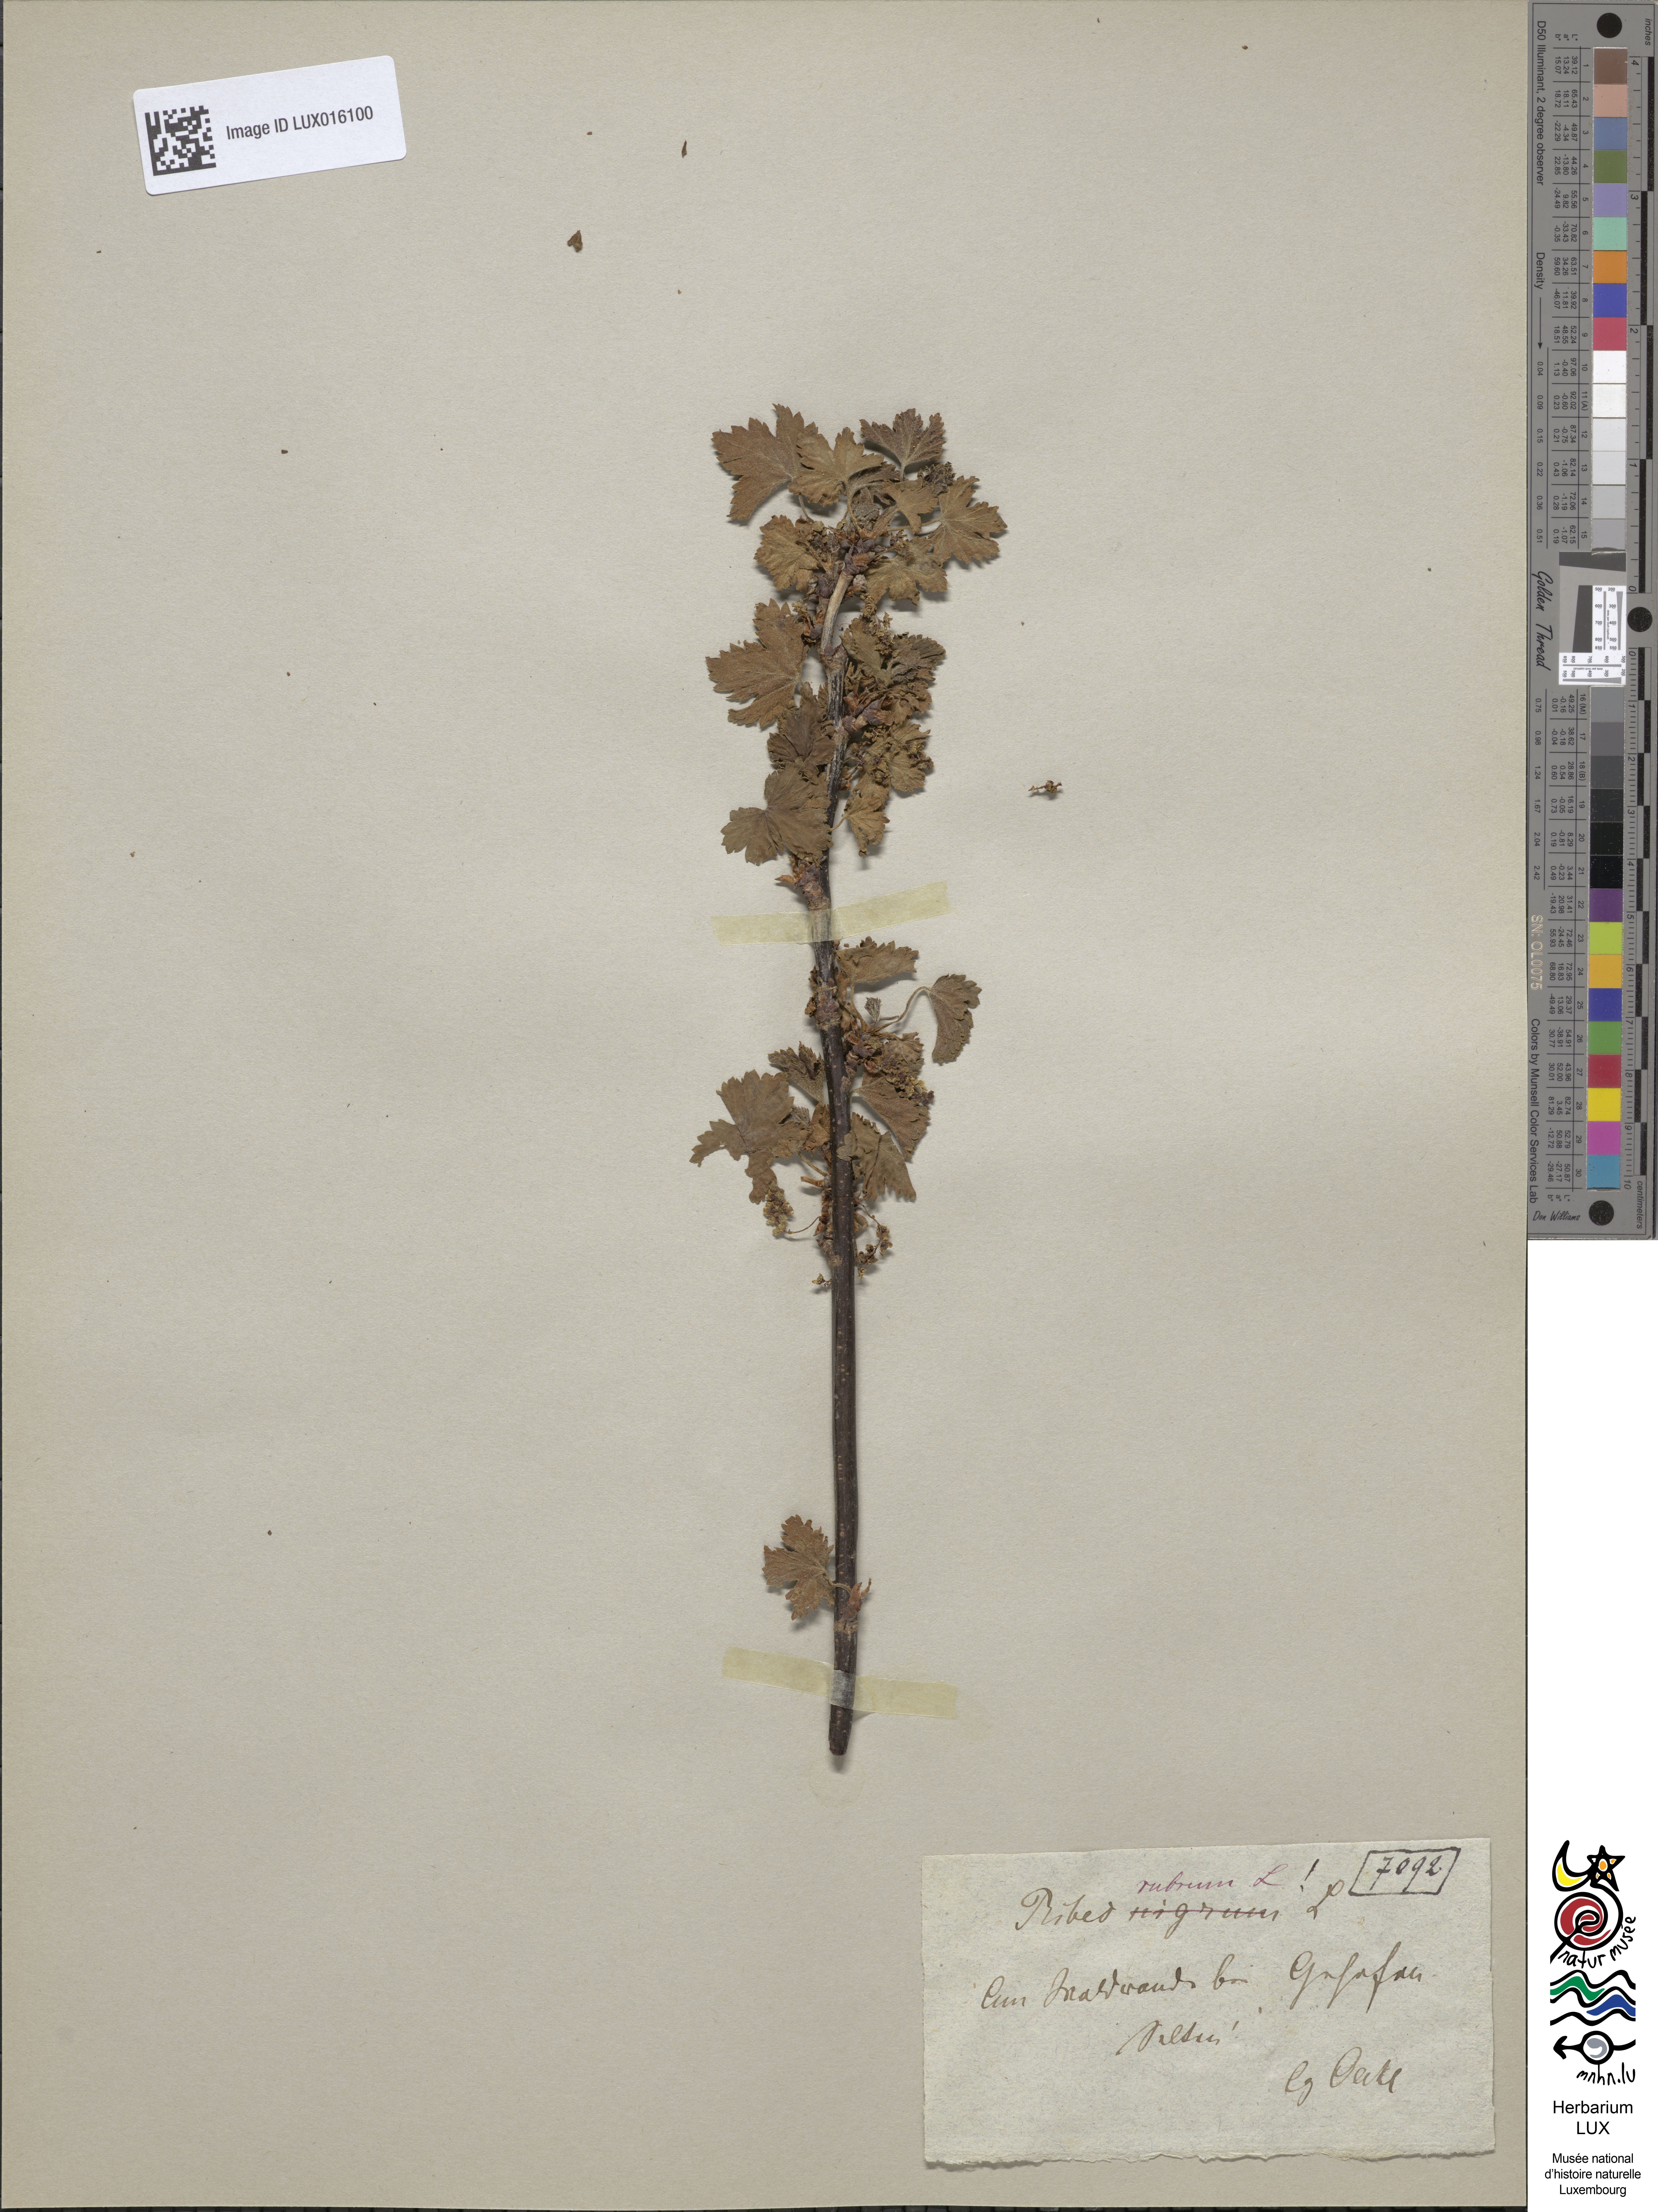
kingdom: Plantae
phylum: Tracheophyta
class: Magnoliopsida
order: Saxifragales
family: Grossulariaceae
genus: Ribes
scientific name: Ribes rubrum
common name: Red currant
